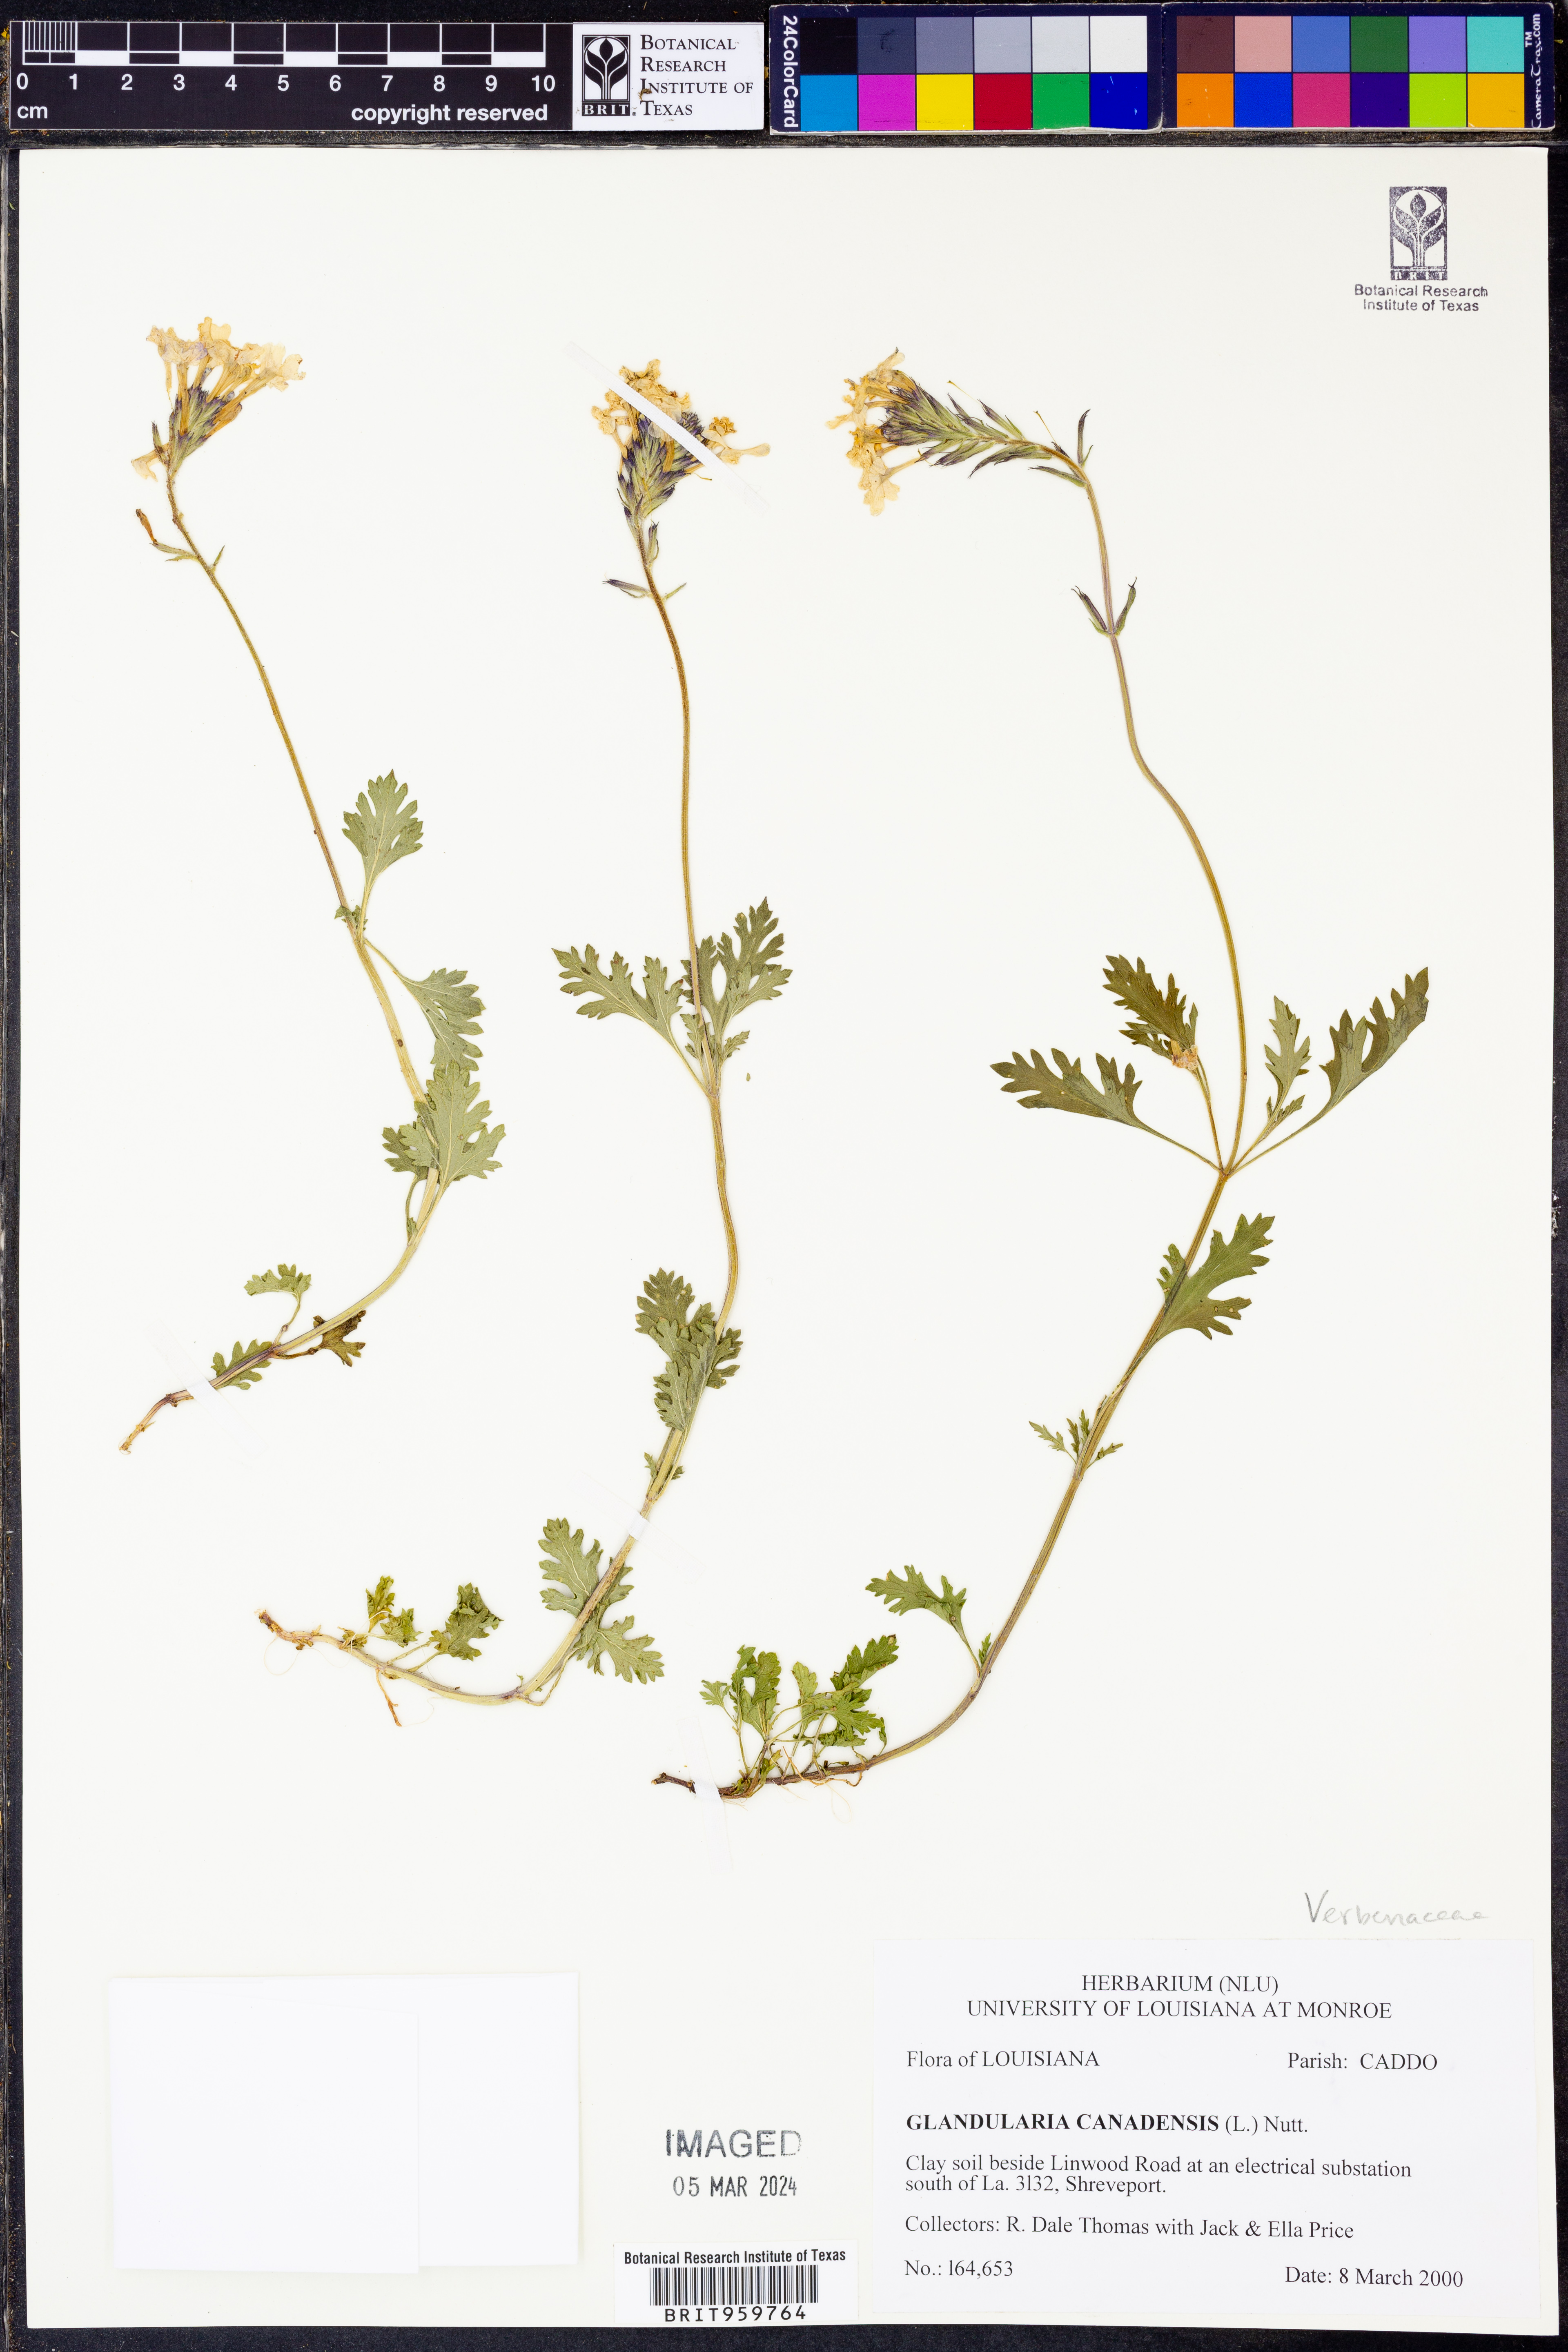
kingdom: Plantae
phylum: Tracheophyta
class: Magnoliopsida
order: Lamiales
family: Verbenaceae
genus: Verbena
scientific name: Verbena canadensis
